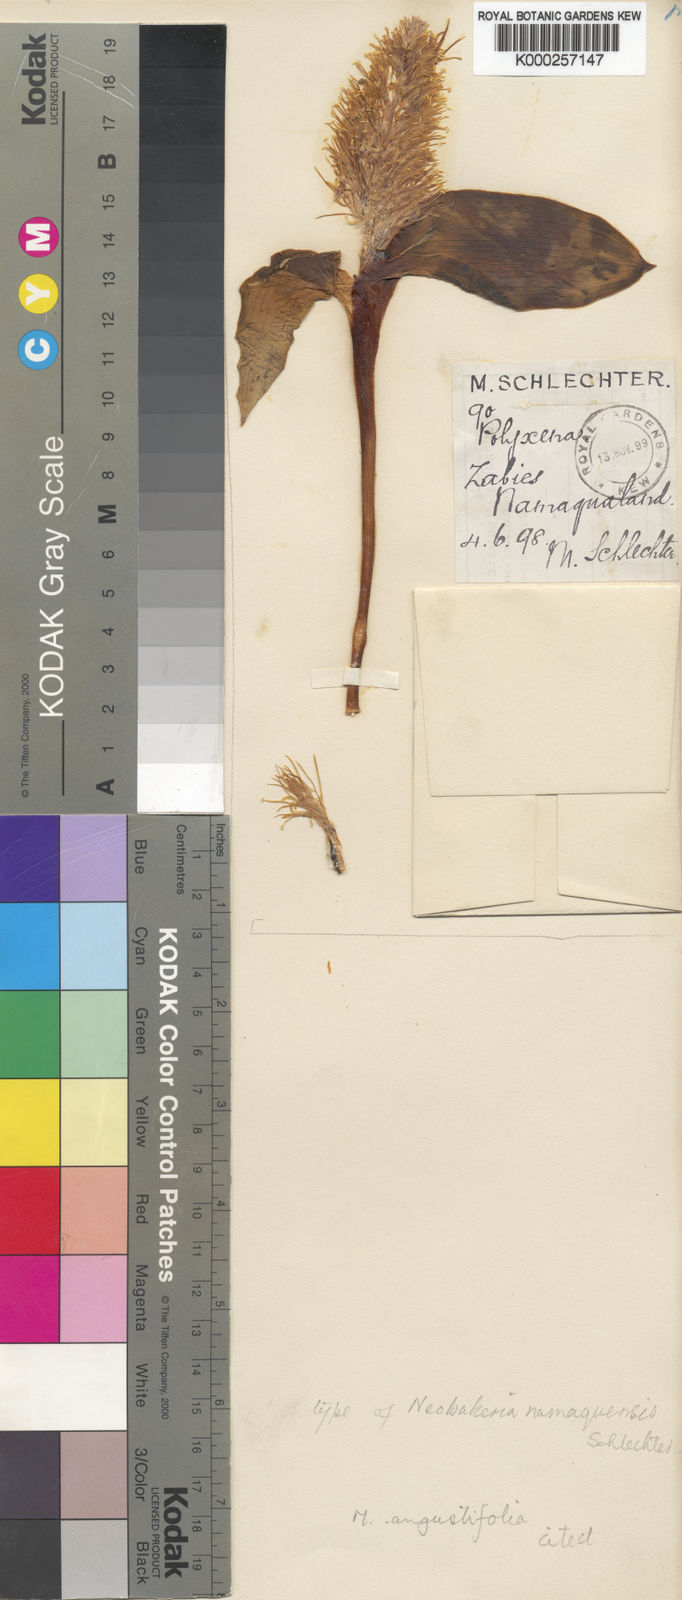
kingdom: Plantae
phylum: Tracheophyta
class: Liliopsida
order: Asparagales
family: Asparagaceae
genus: Massonia
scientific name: Massonia angustifolia
